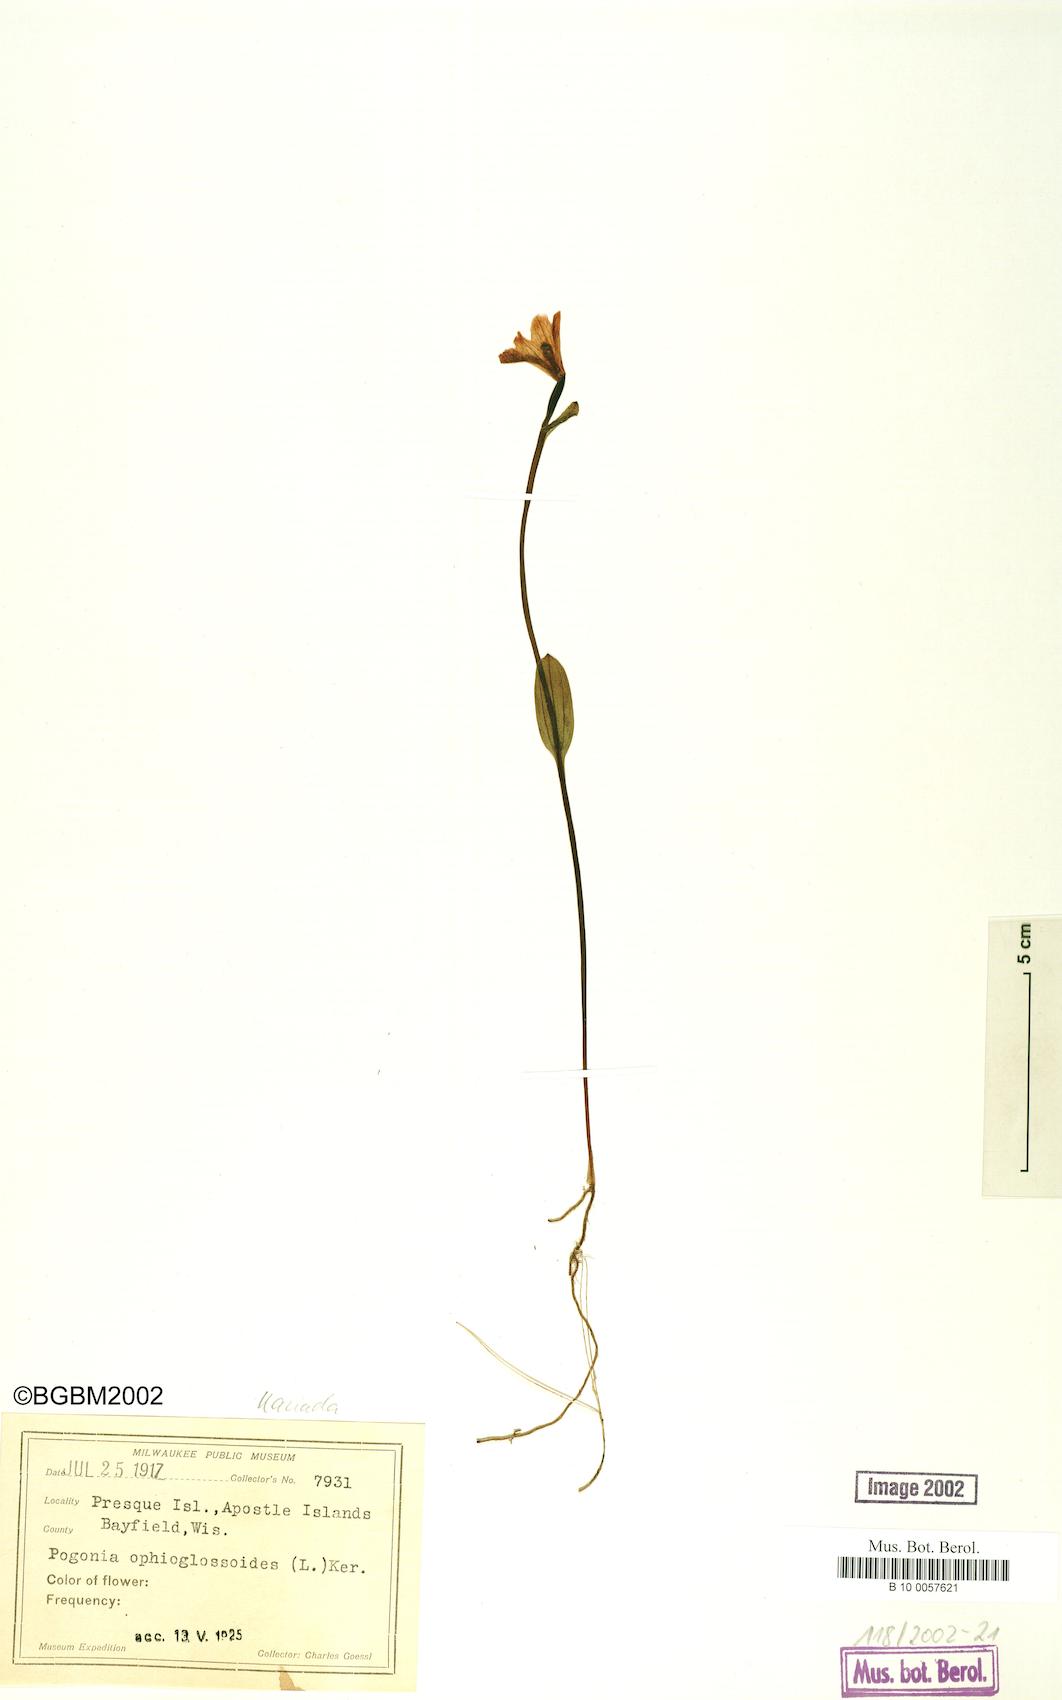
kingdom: Plantae
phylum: Tracheophyta
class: Liliopsida
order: Asparagales
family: Orchidaceae
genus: Pogonia
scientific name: Pogonia ophioglossoides
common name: Rose pogonia
